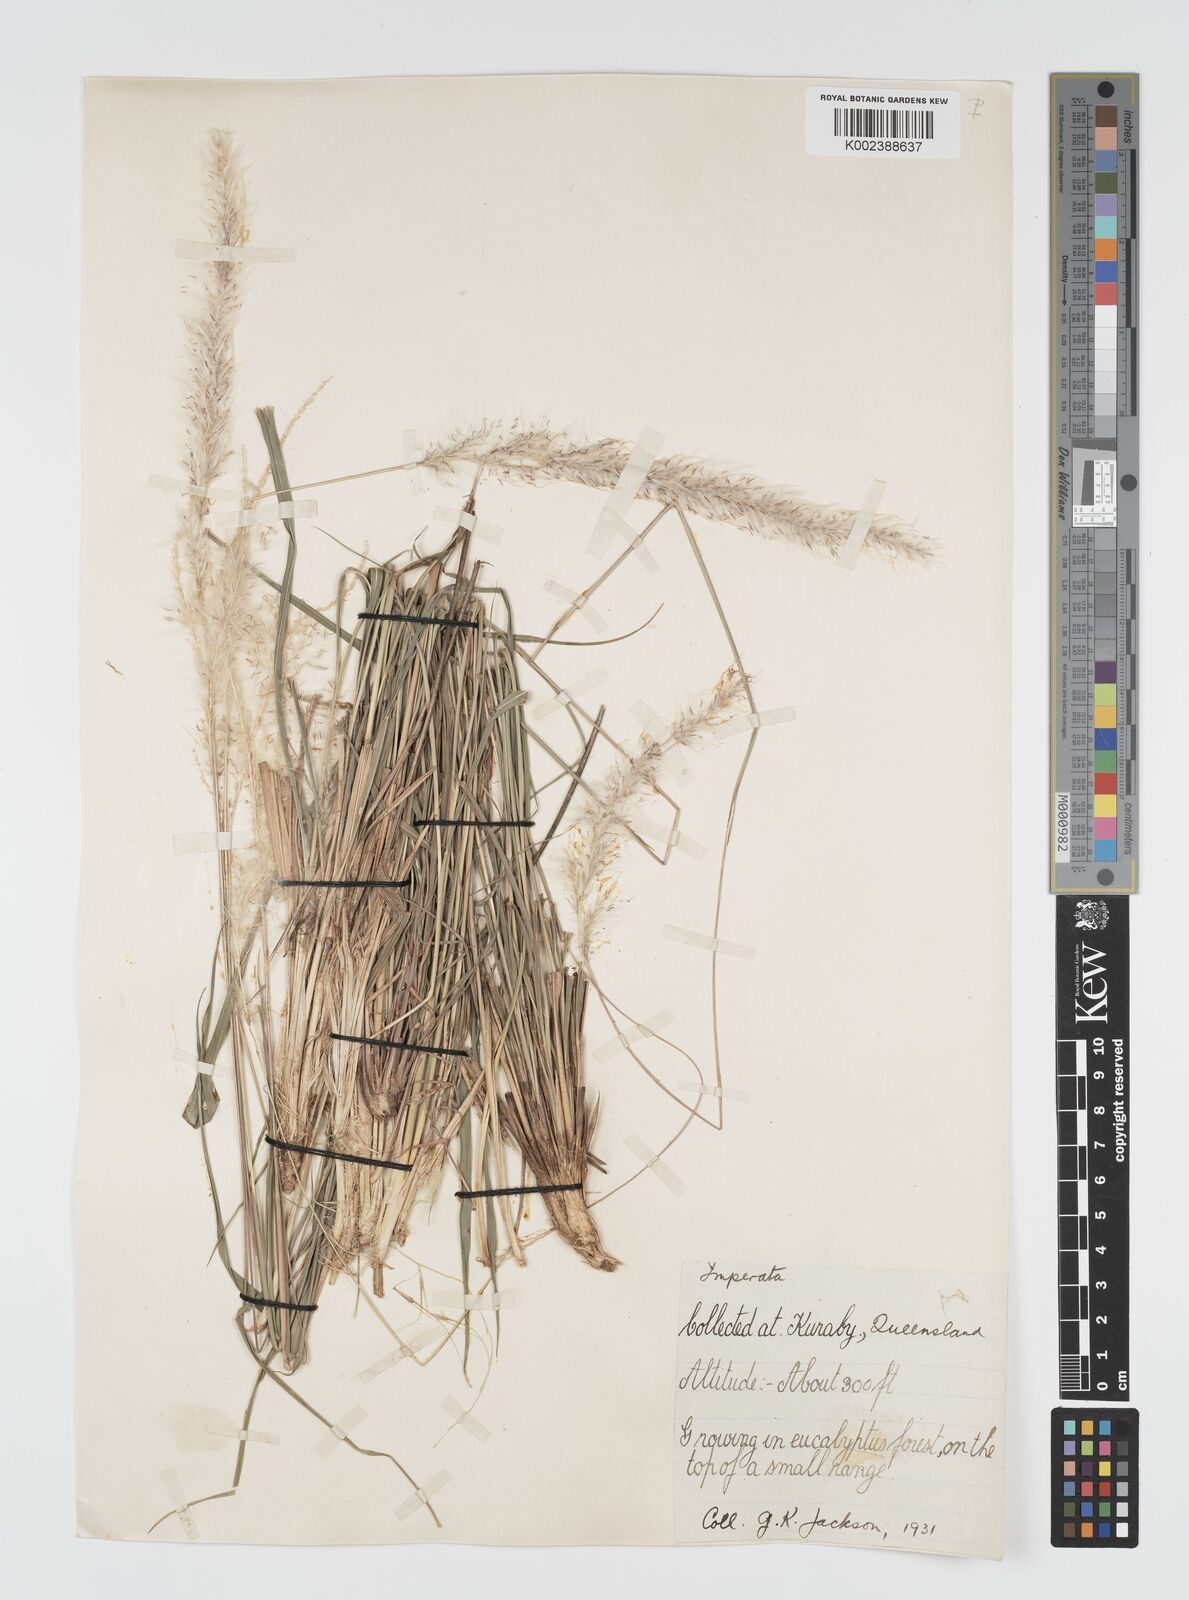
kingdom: Plantae
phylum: Tracheophyta
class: Liliopsida
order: Poales
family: Poaceae
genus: Imperata
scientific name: Imperata cylindrica
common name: Cogongrass
